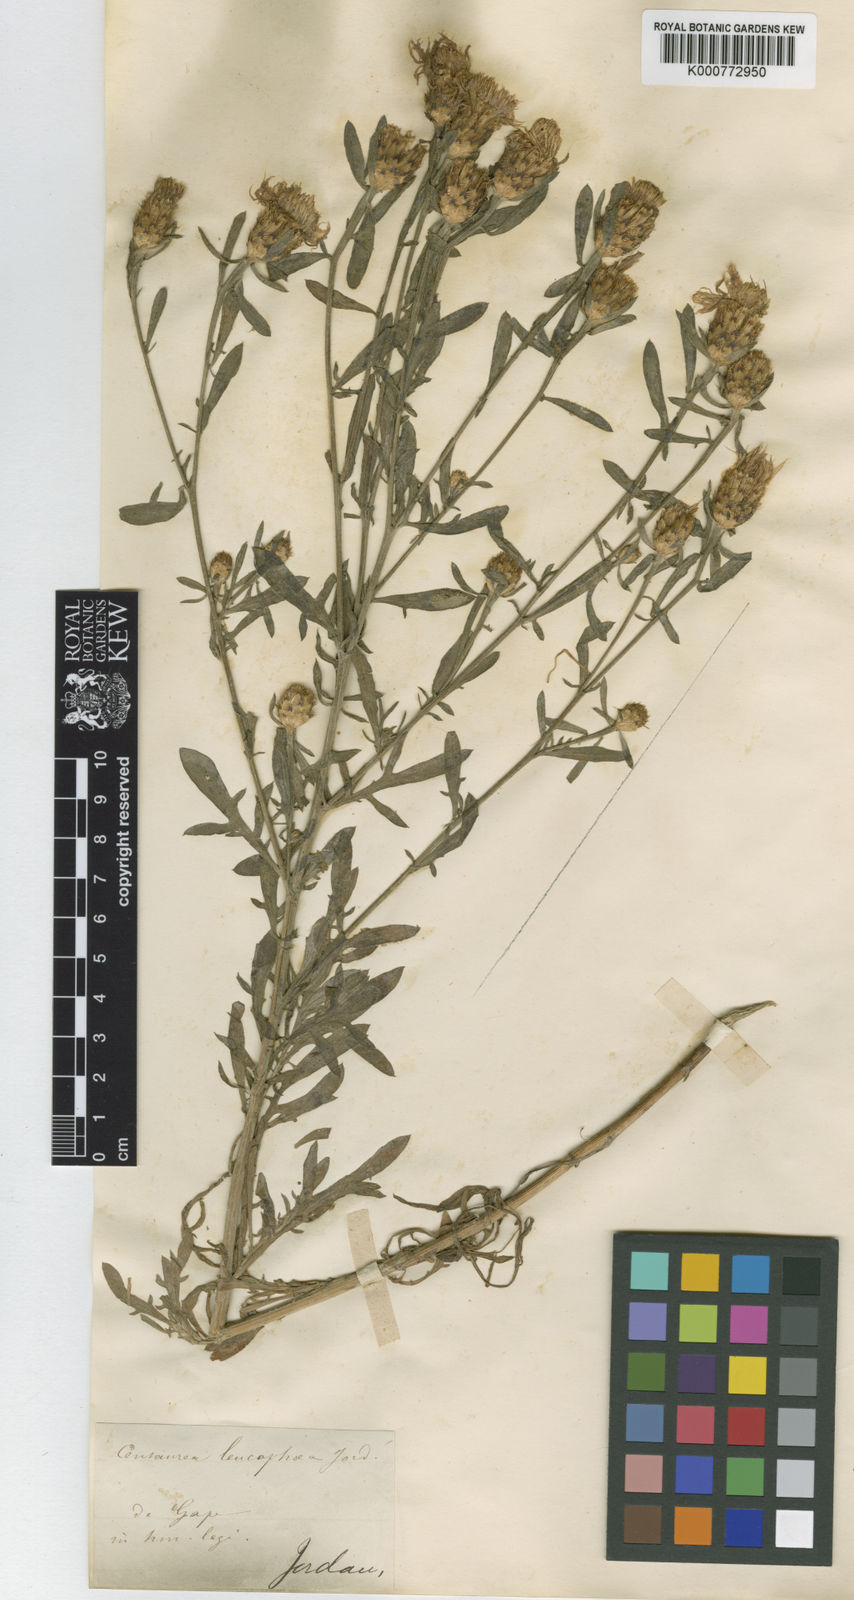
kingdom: Plantae
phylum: Tracheophyta
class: Magnoliopsida
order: Asterales
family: Asteraceae
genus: Centaurea
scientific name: Centaurea leucophaea
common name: Whitish-leaved knapweed
